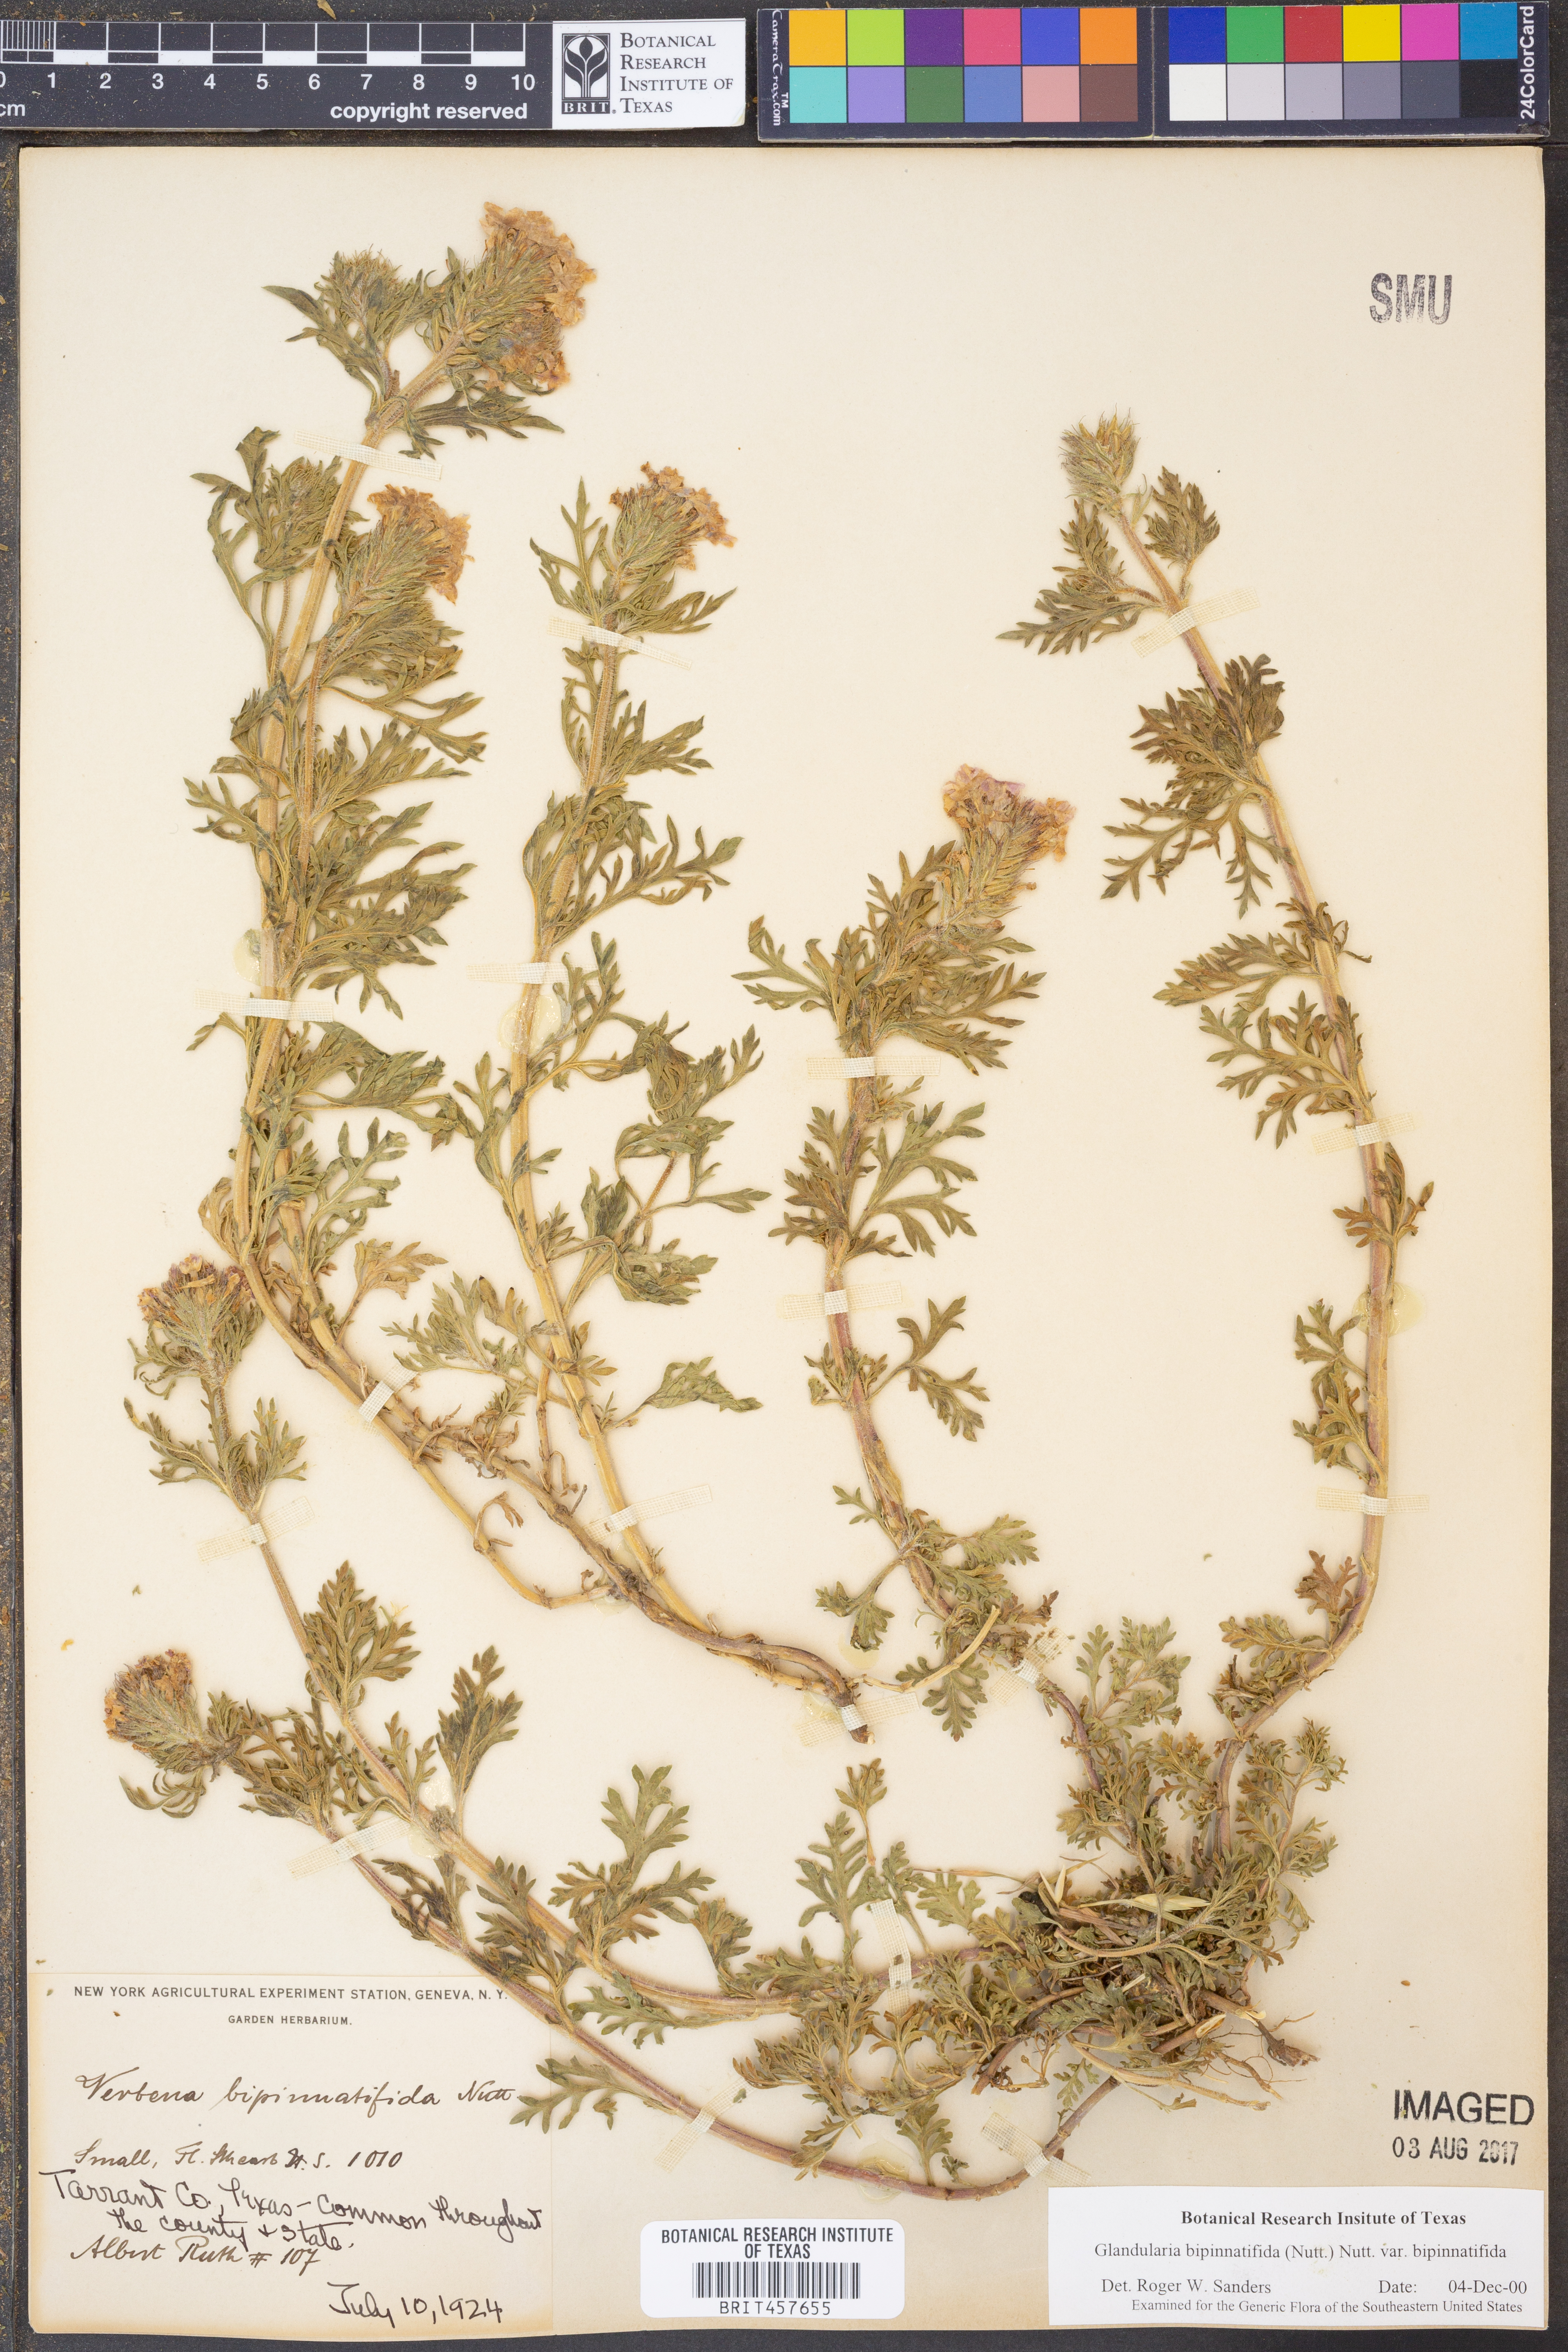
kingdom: Plantae
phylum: Tracheophyta
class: Magnoliopsida
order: Lamiales
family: Verbenaceae
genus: Verbena
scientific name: Verbena bipinnatifida
